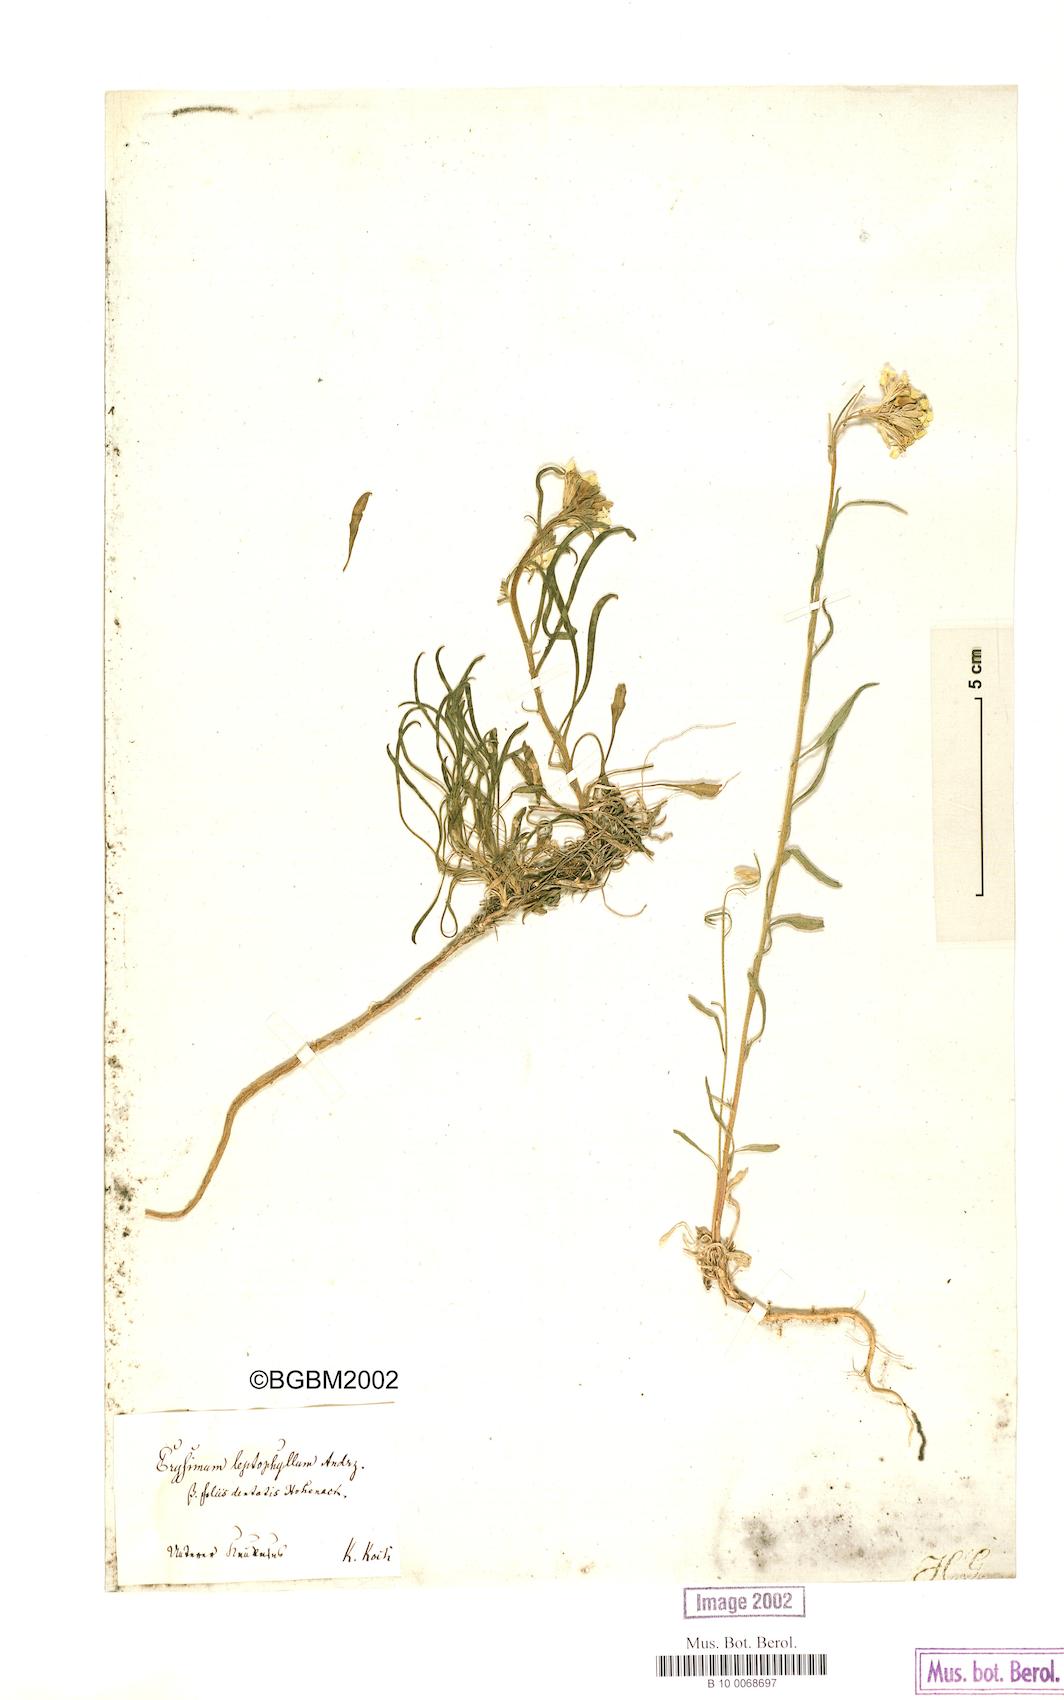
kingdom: Plantae
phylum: Tracheophyta
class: Magnoliopsida
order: Brassicales
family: Brassicaceae
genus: Erysimum
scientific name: Erysimum leptophyllum
